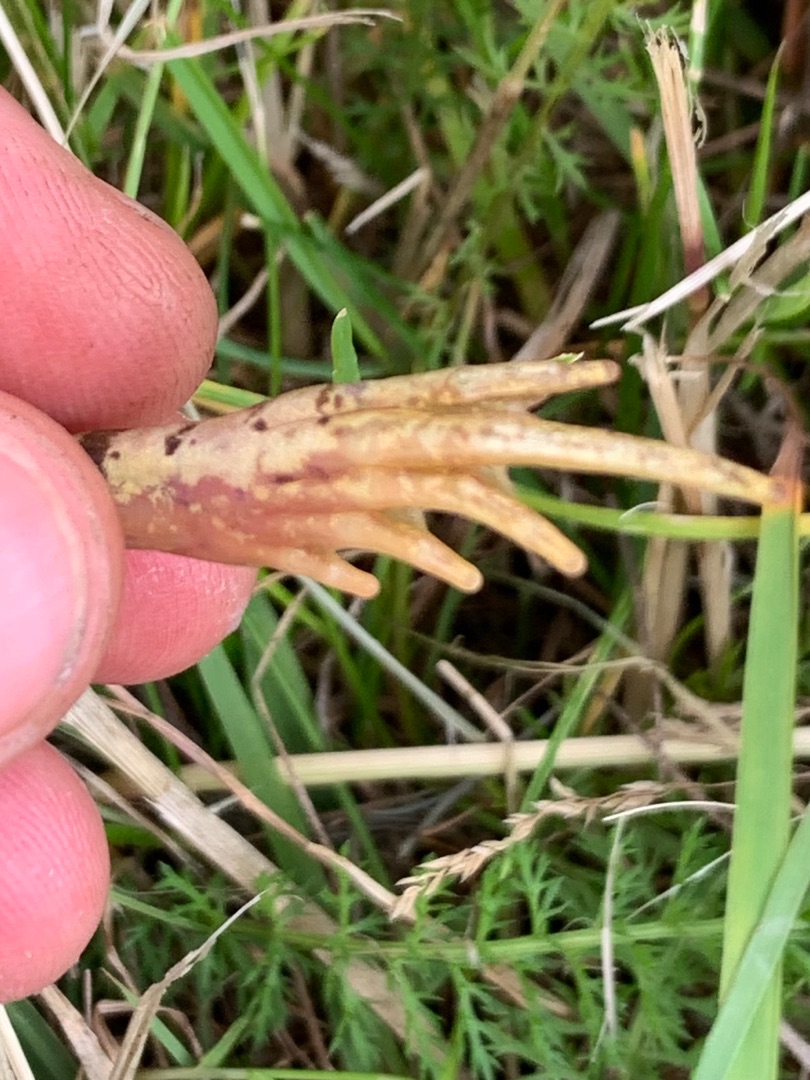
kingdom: Animalia
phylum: Chordata
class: Amphibia
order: Anura
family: Ranidae
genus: Rana
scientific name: Rana temporaria
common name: Butsnudet frø
